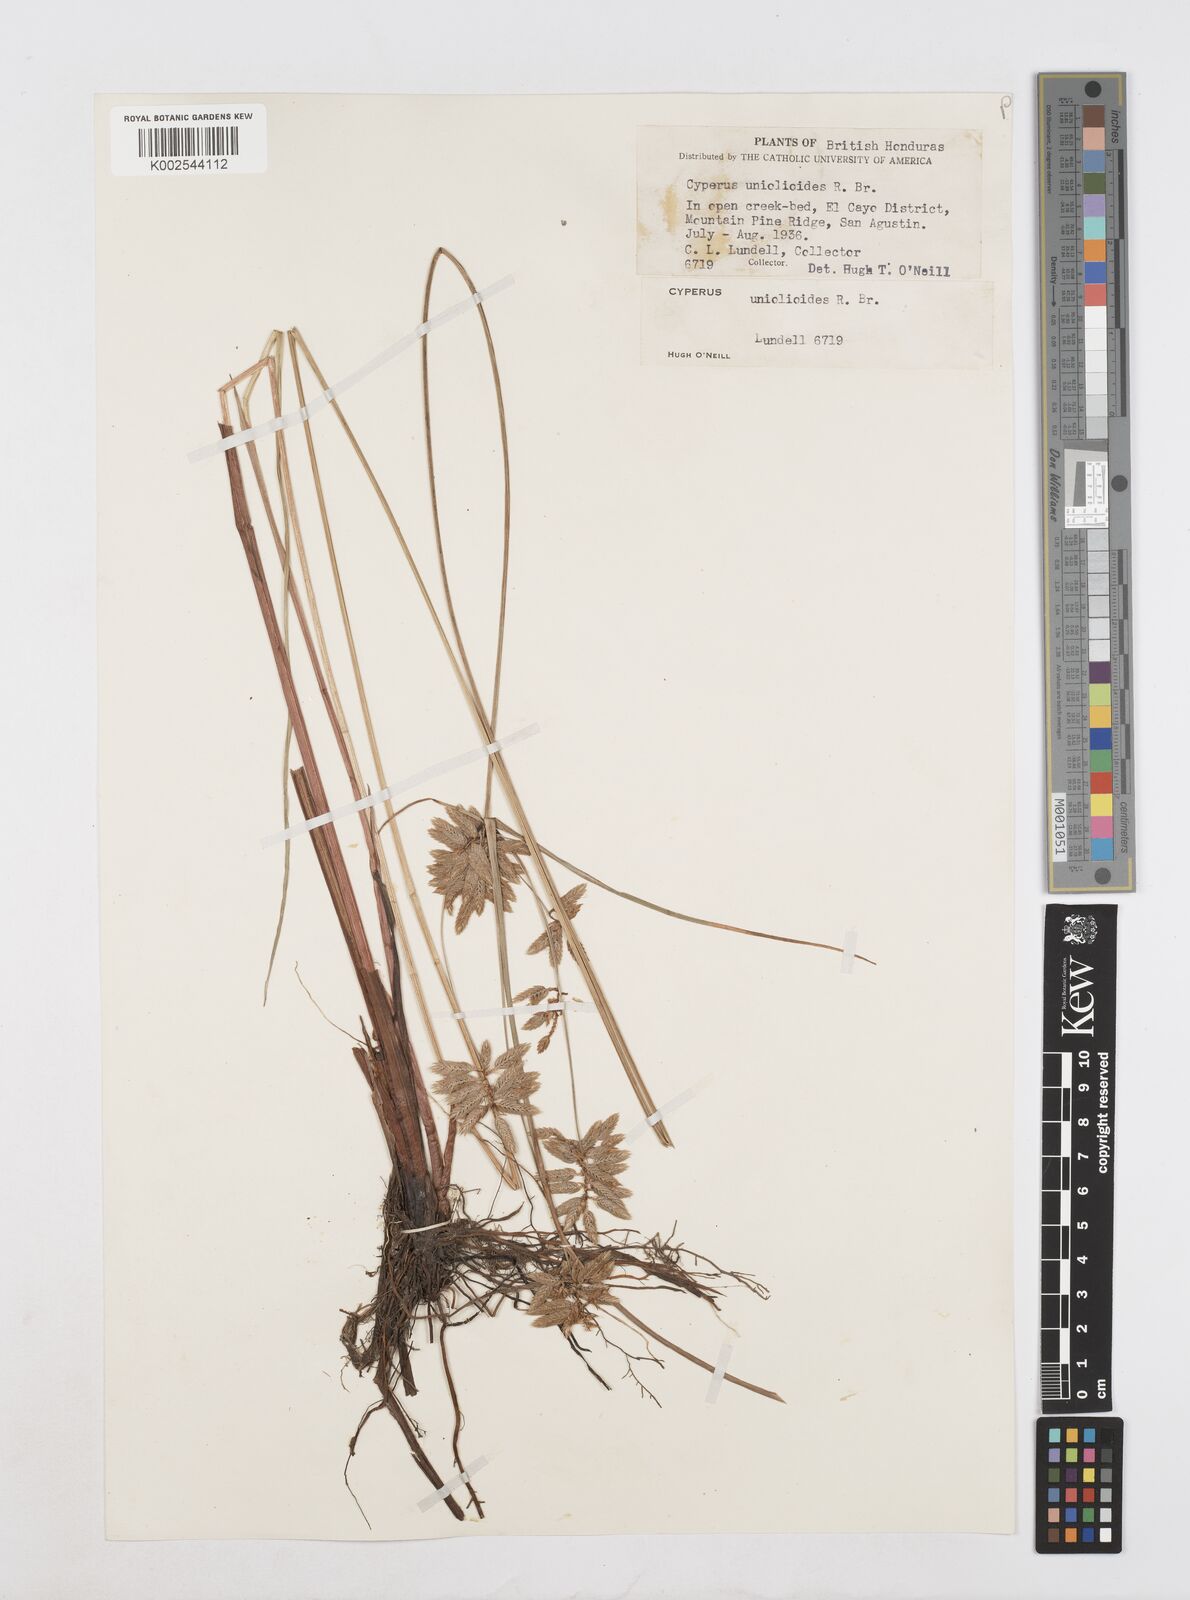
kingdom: Plantae
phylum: Tracheophyta
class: Liliopsida
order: Poales
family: Cyperaceae
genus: Cyperus
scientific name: Cyperus unioloides
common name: Uniola flatsedge
